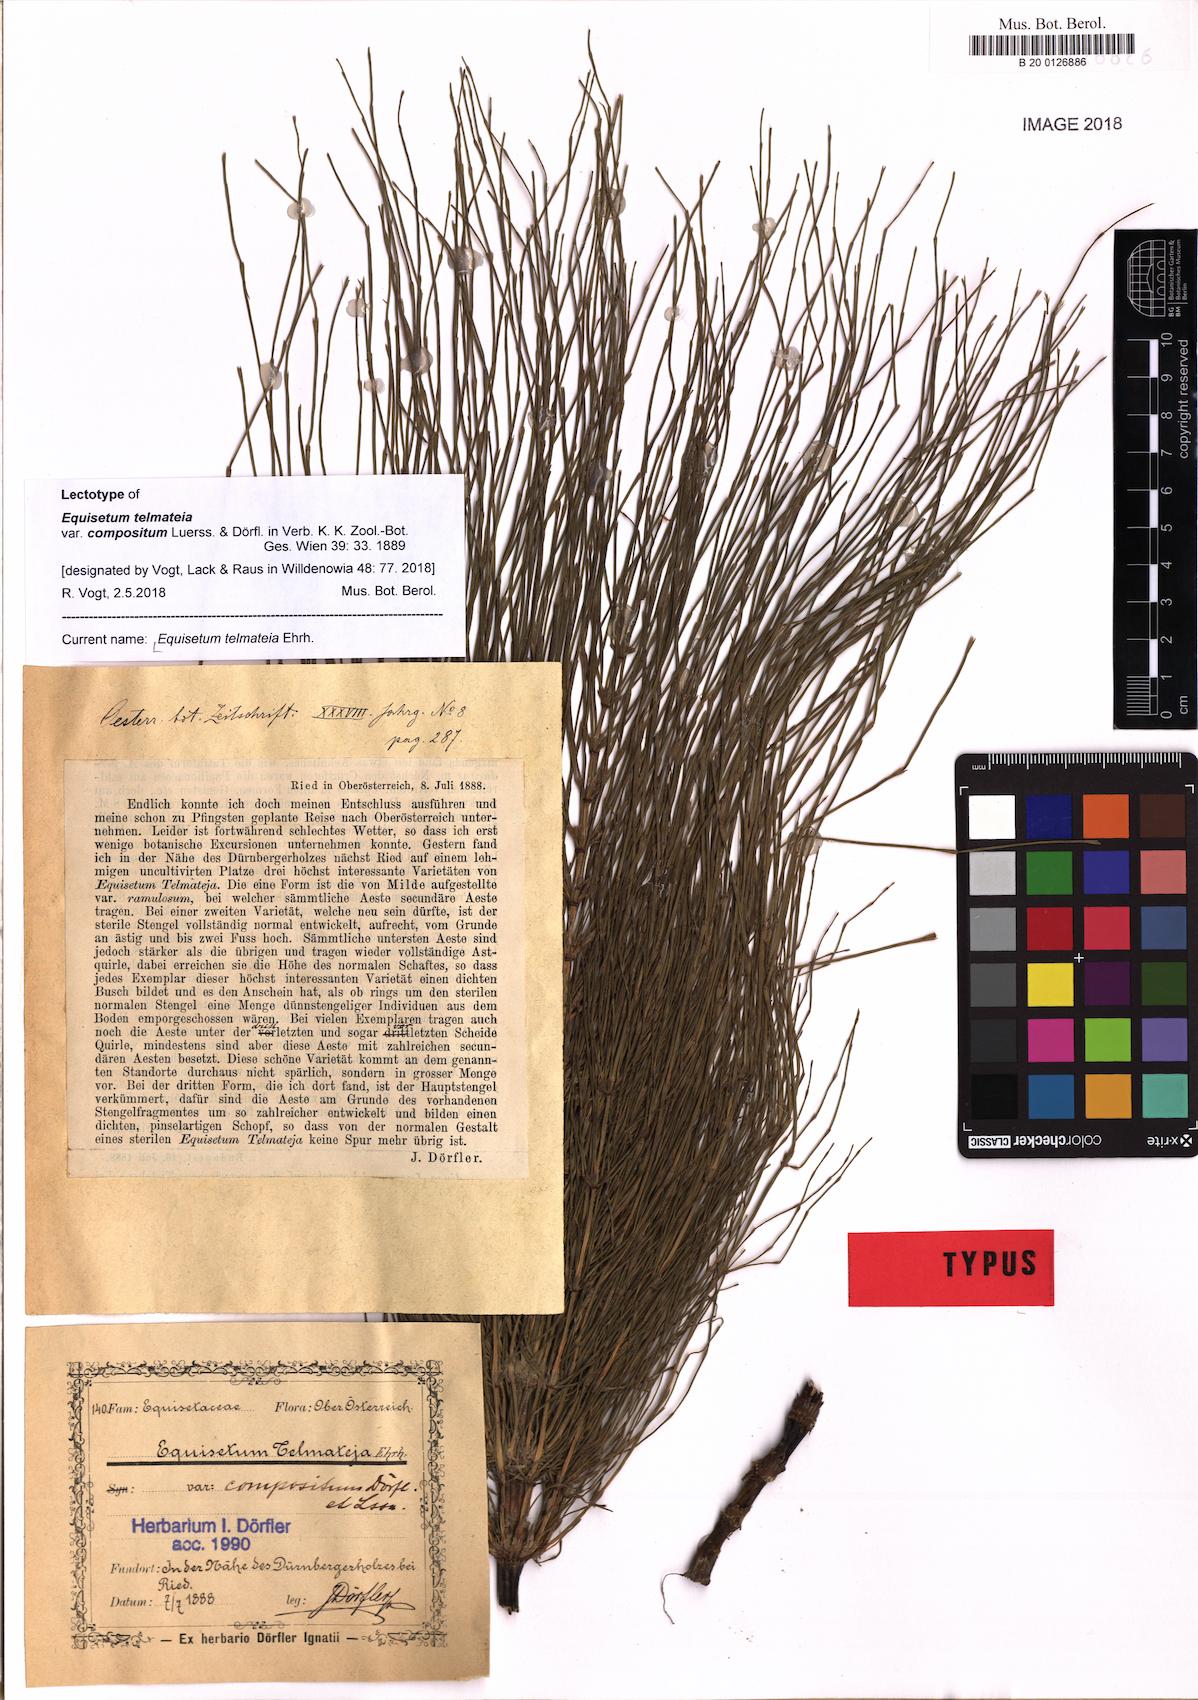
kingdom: Plantae
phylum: Tracheophyta
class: Polypodiopsida
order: Equisetales
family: Equisetaceae
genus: Equisetum
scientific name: Equisetum telmateia
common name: Great horsetail
